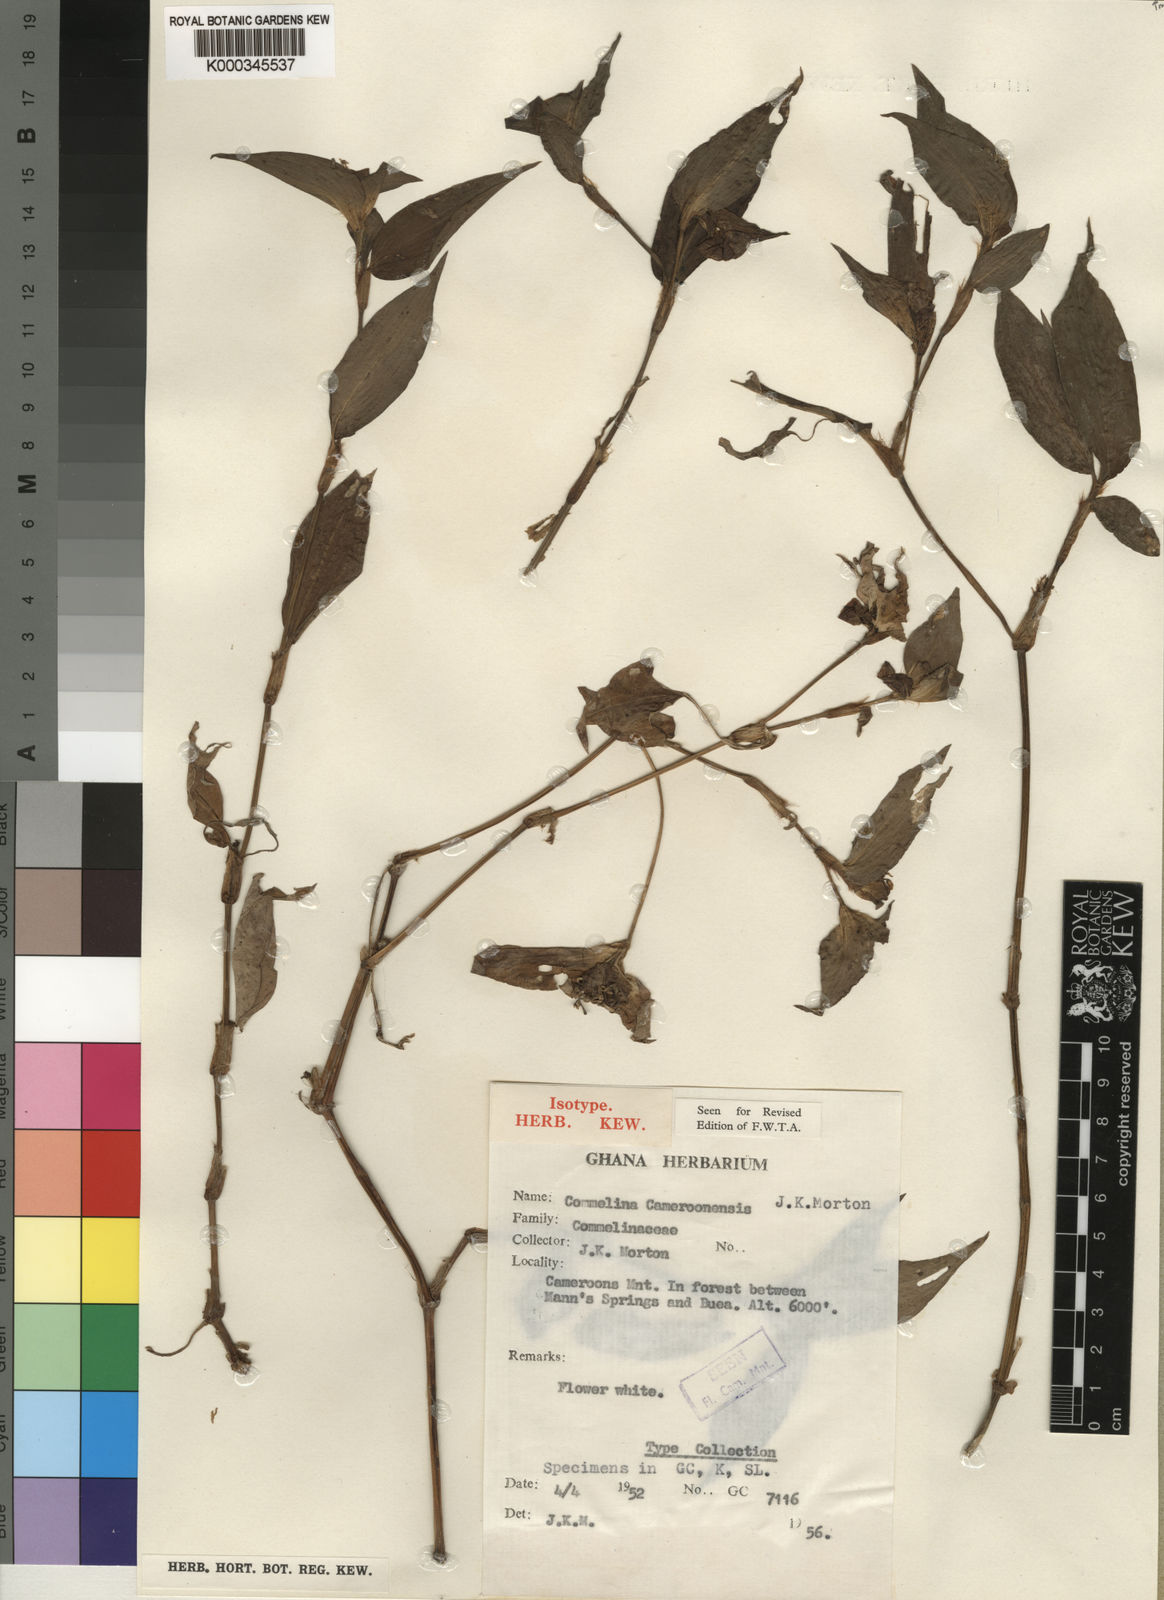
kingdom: Plantae
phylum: Tracheophyta
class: Liliopsida
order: Commelinales
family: Commelinaceae
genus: Commelina
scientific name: Commelina cameroonensis
